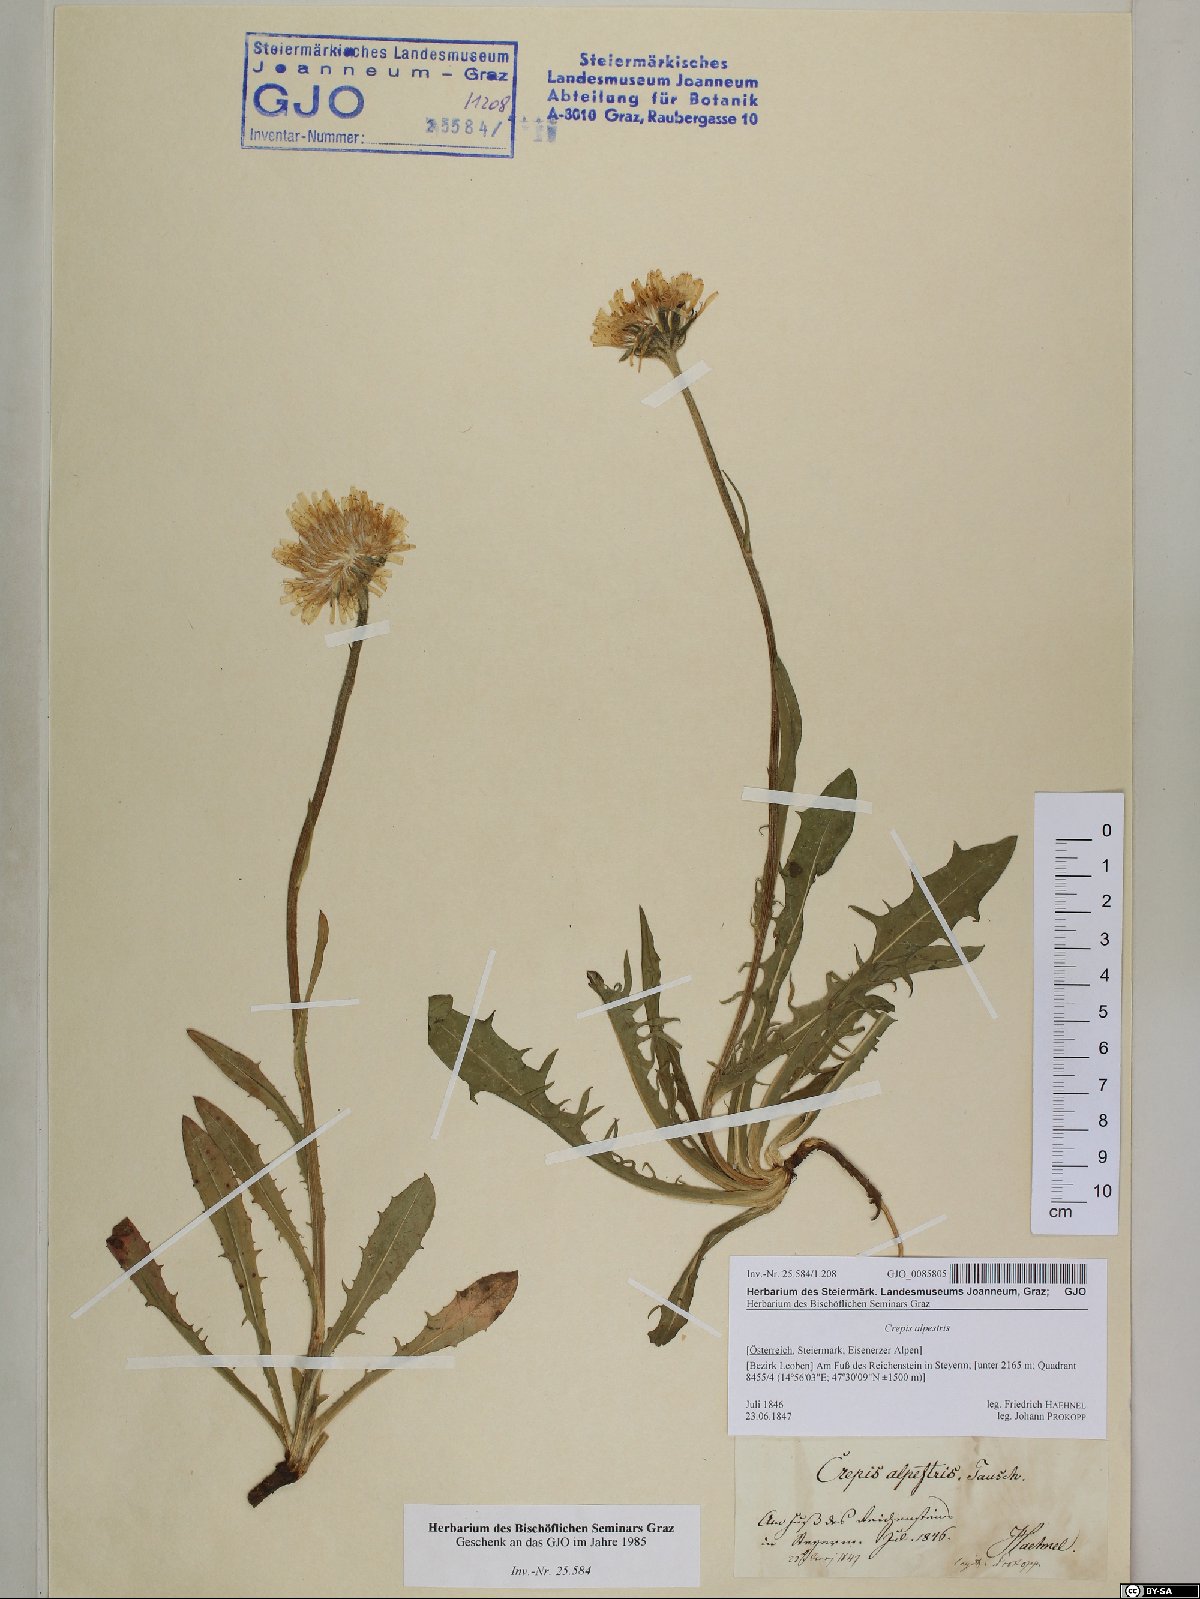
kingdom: Plantae
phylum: Tracheophyta
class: Magnoliopsida
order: Asterales
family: Asteraceae
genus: Crepis
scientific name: Crepis alpestris
